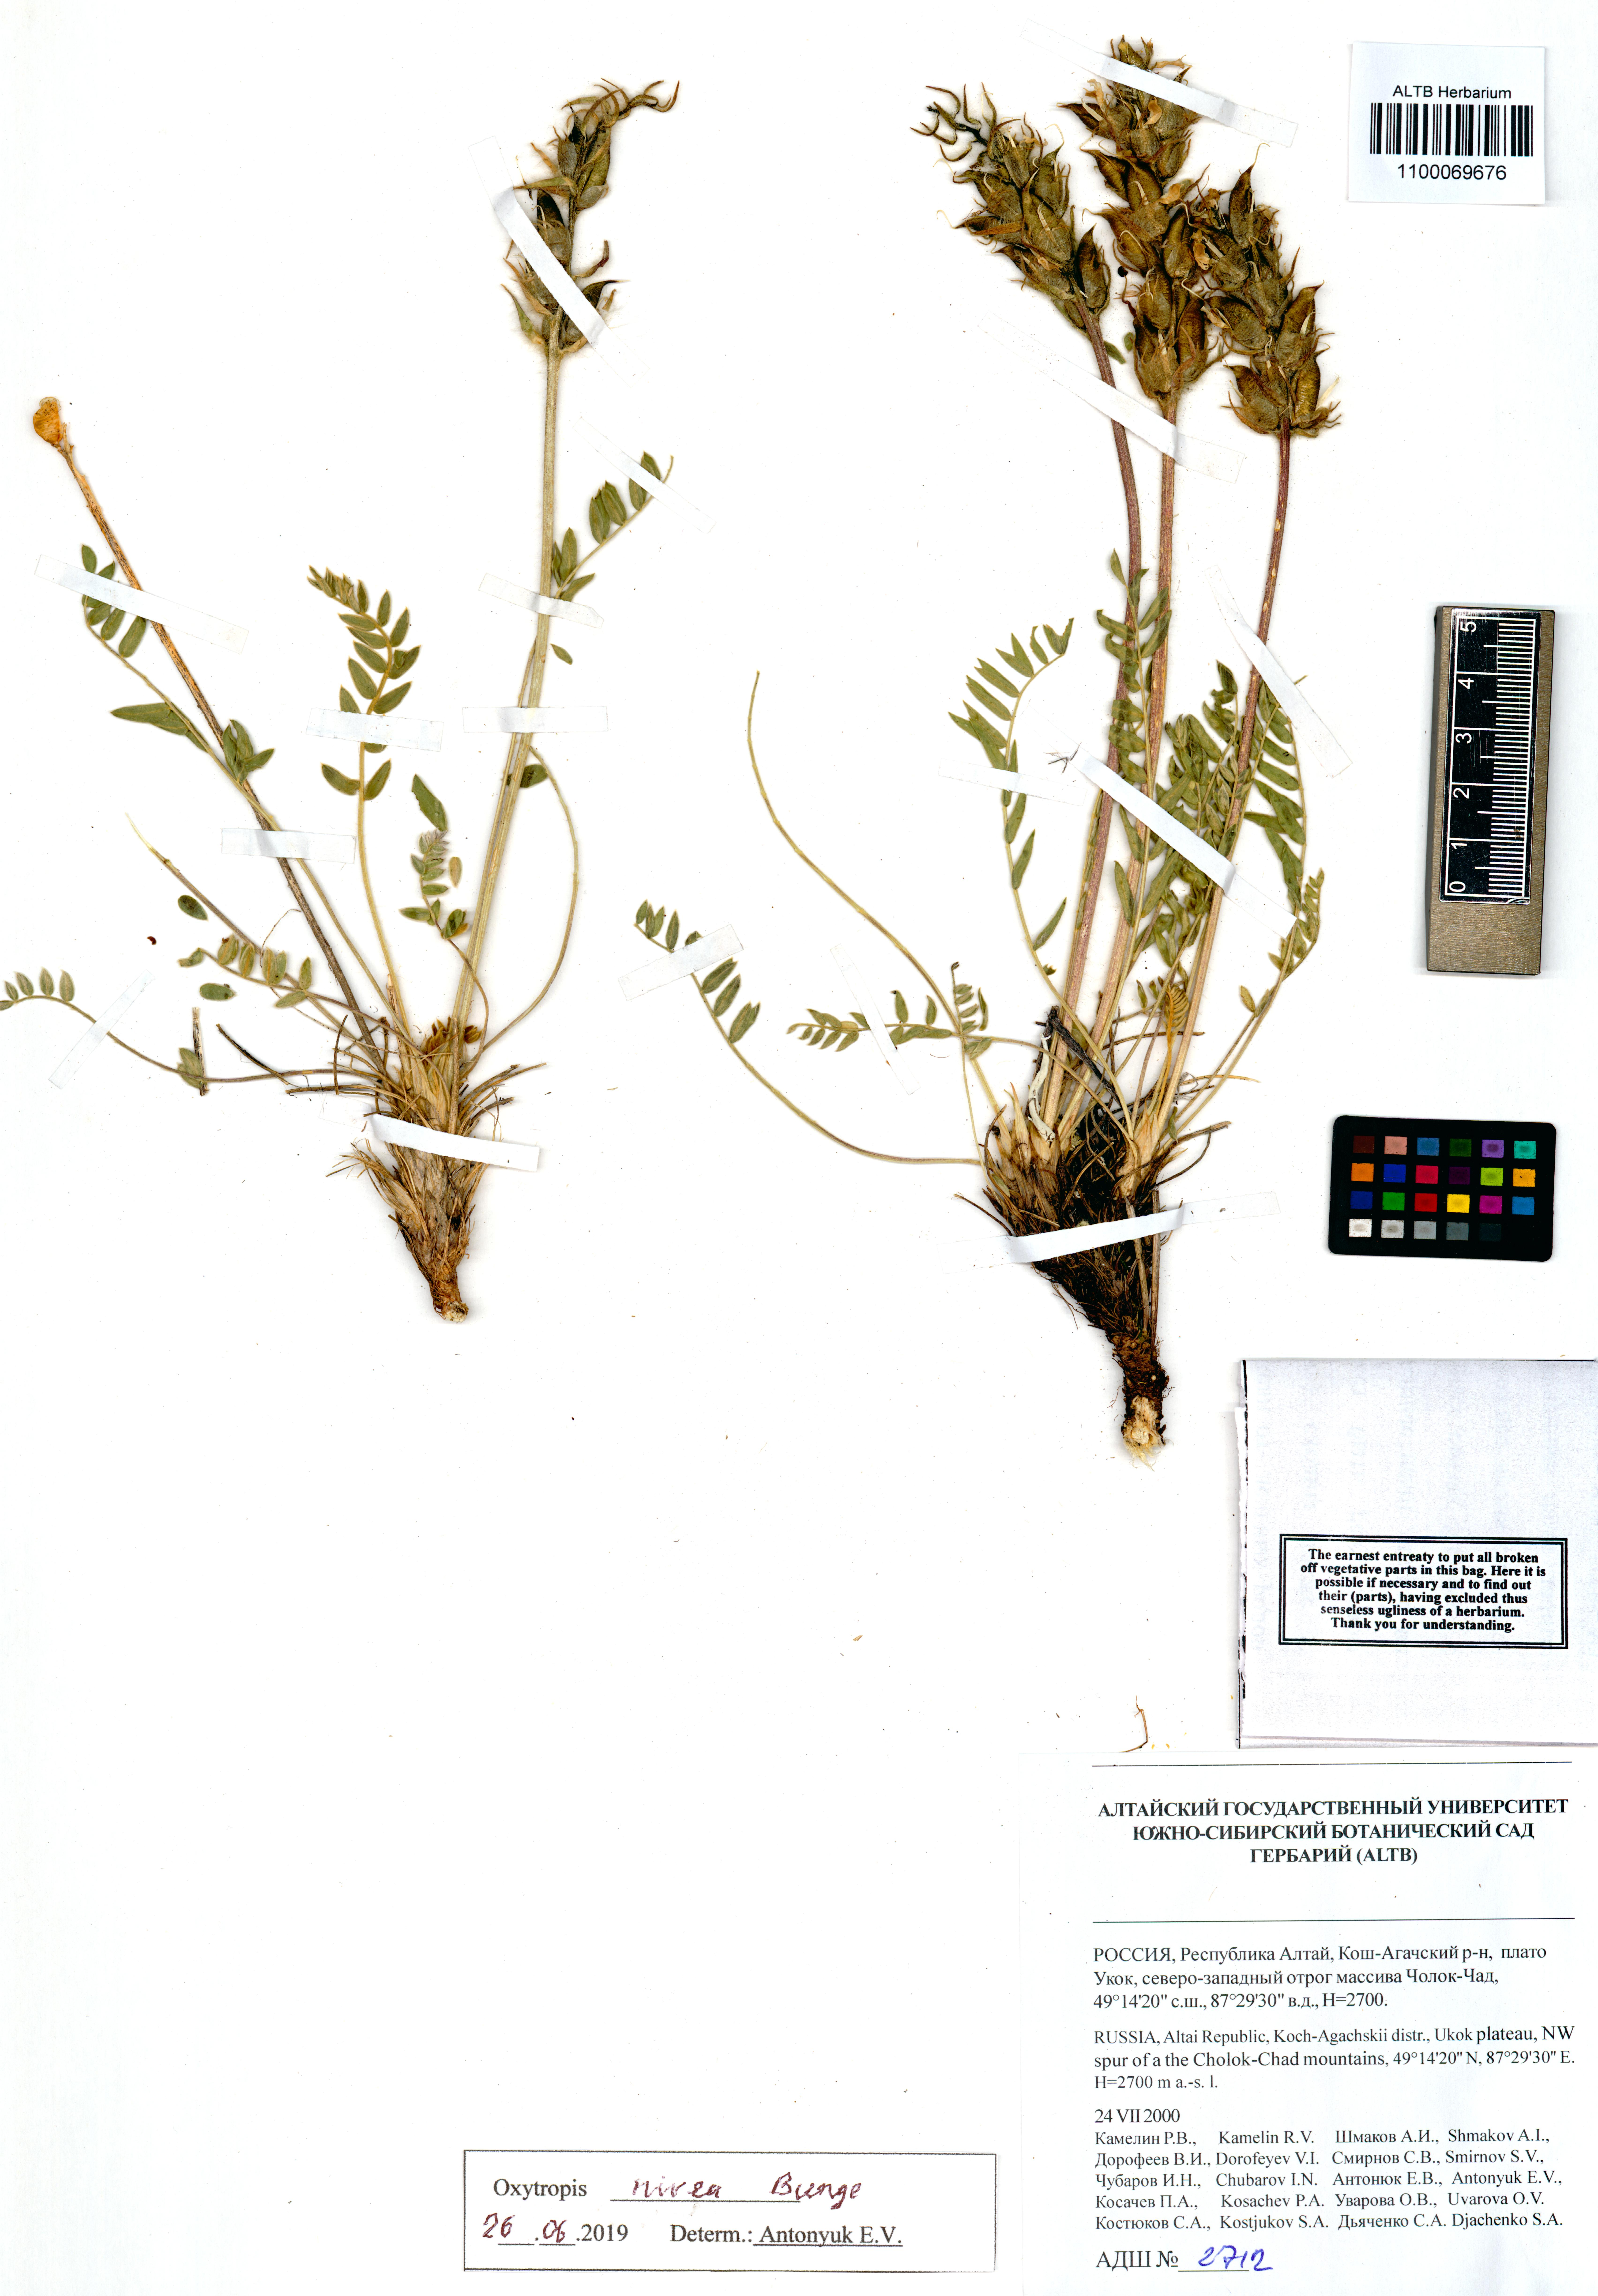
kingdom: Plantae
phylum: Tracheophyta
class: Magnoliopsida
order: Fabales
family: Fabaceae
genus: Oxytropis
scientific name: Oxytropis nivea
